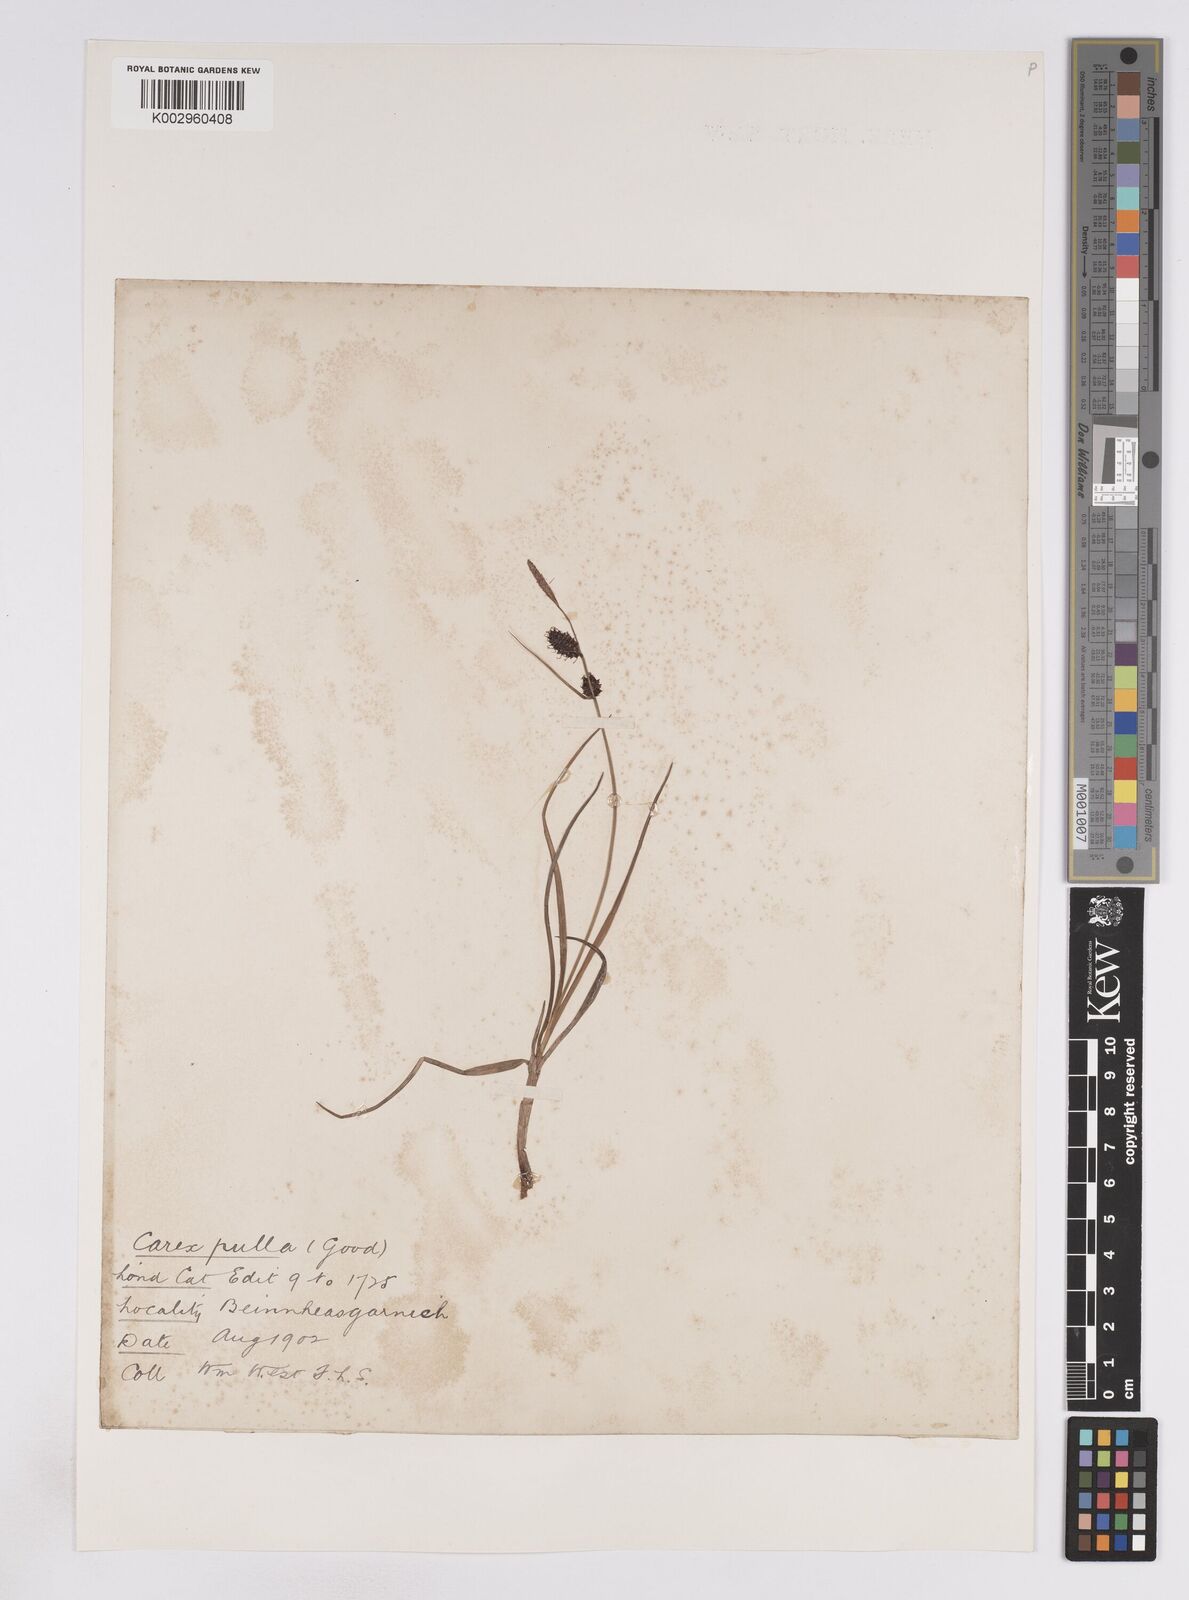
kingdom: Plantae
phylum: Tracheophyta
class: Liliopsida
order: Poales
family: Cyperaceae
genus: Carex
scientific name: Carex saxatilis
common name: Russet sedge
